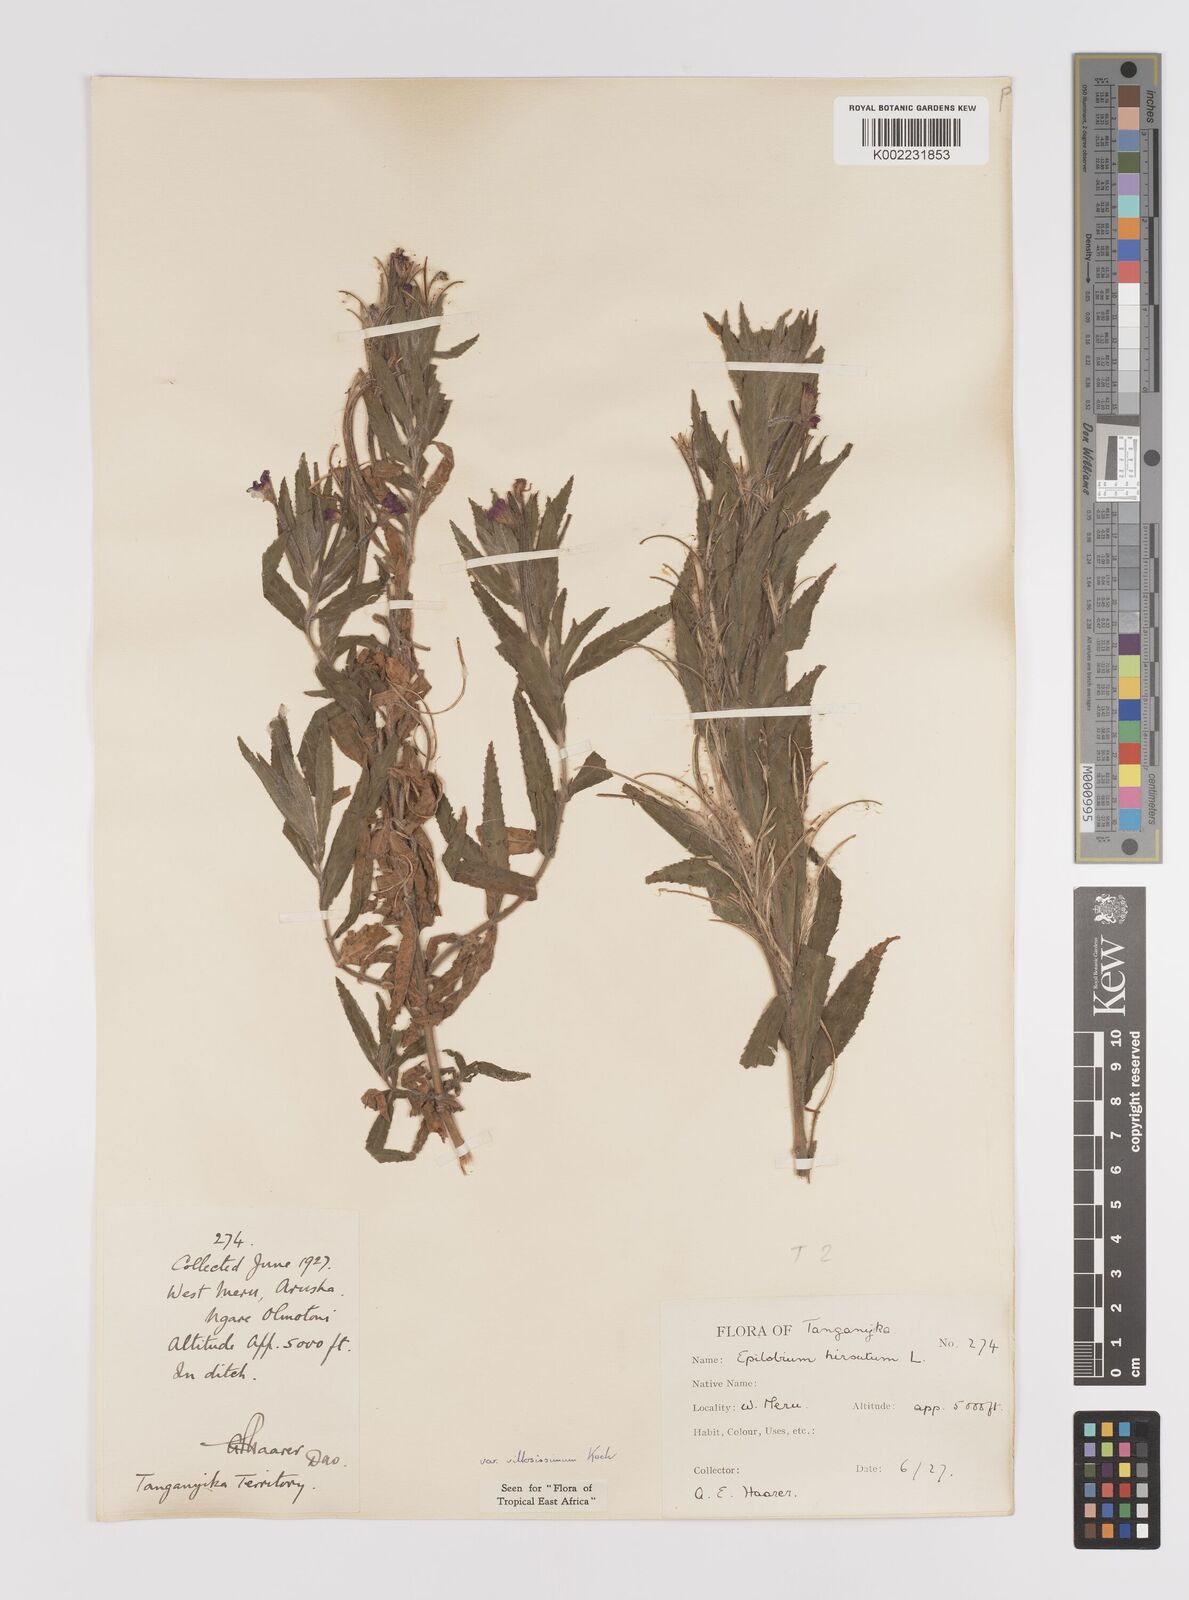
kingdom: Plantae
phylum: Tracheophyta
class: Magnoliopsida
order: Myrtales
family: Onagraceae
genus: Epilobium
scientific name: Epilobium hirsutum
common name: Great willowherb
